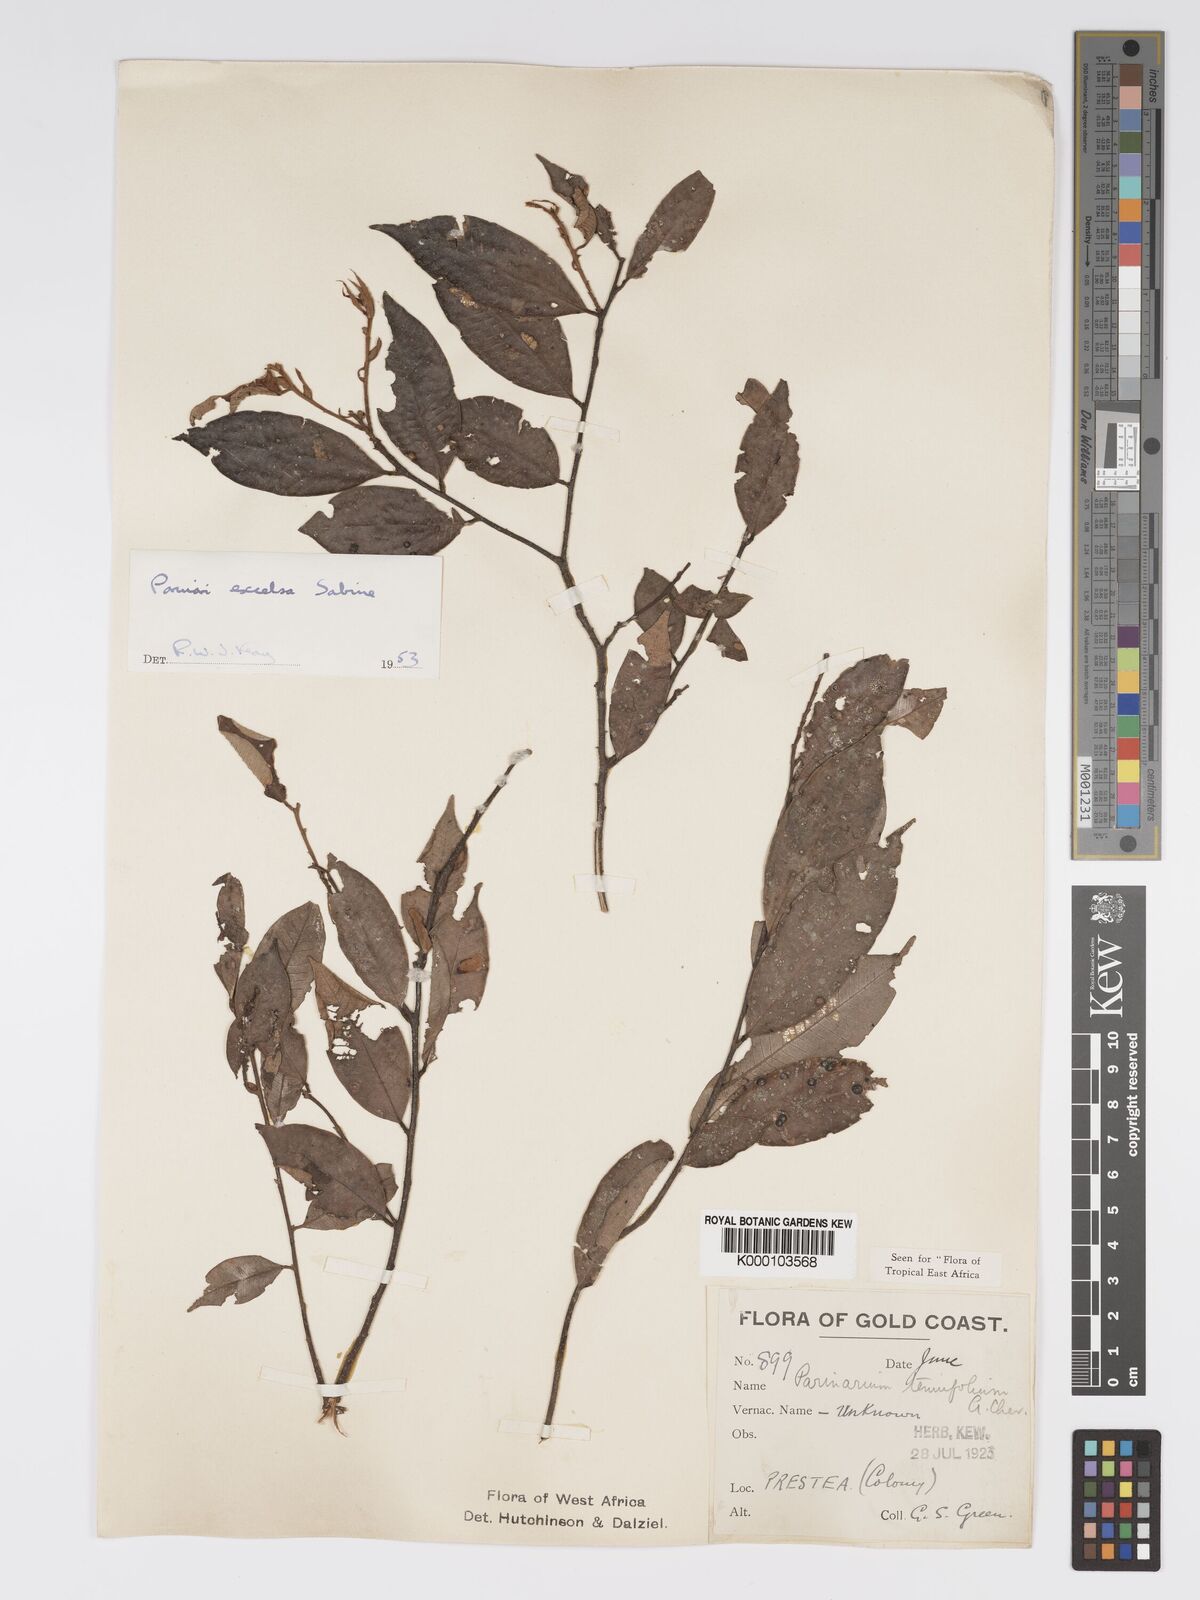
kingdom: Plantae
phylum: Tracheophyta
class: Magnoliopsida
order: Malpighiales
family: Chrysobalanaceae
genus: Parinari
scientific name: Parinari excelsa
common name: Guinea-plum
